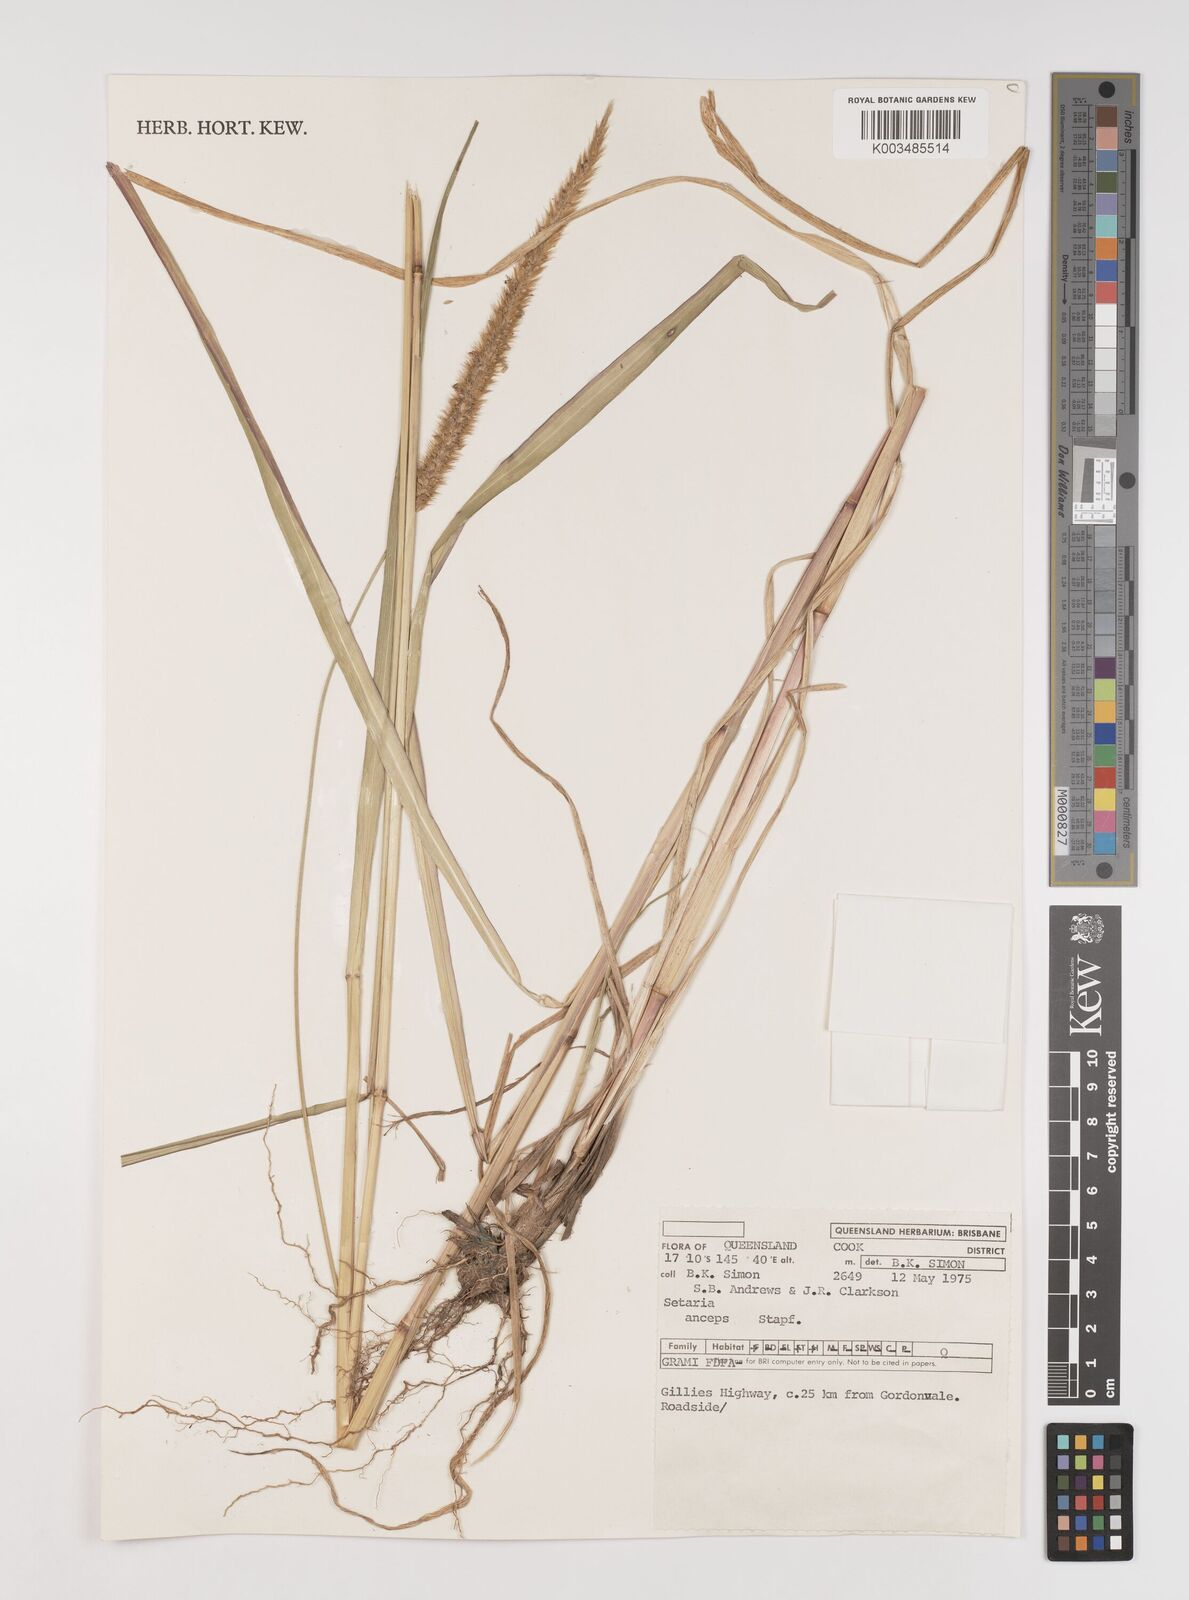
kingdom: Plantae
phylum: Tracheophyta
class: Liliopsida
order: Poales
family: Poaceae
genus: Setaria
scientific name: Setaria sphacelata
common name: African bristlegrass
